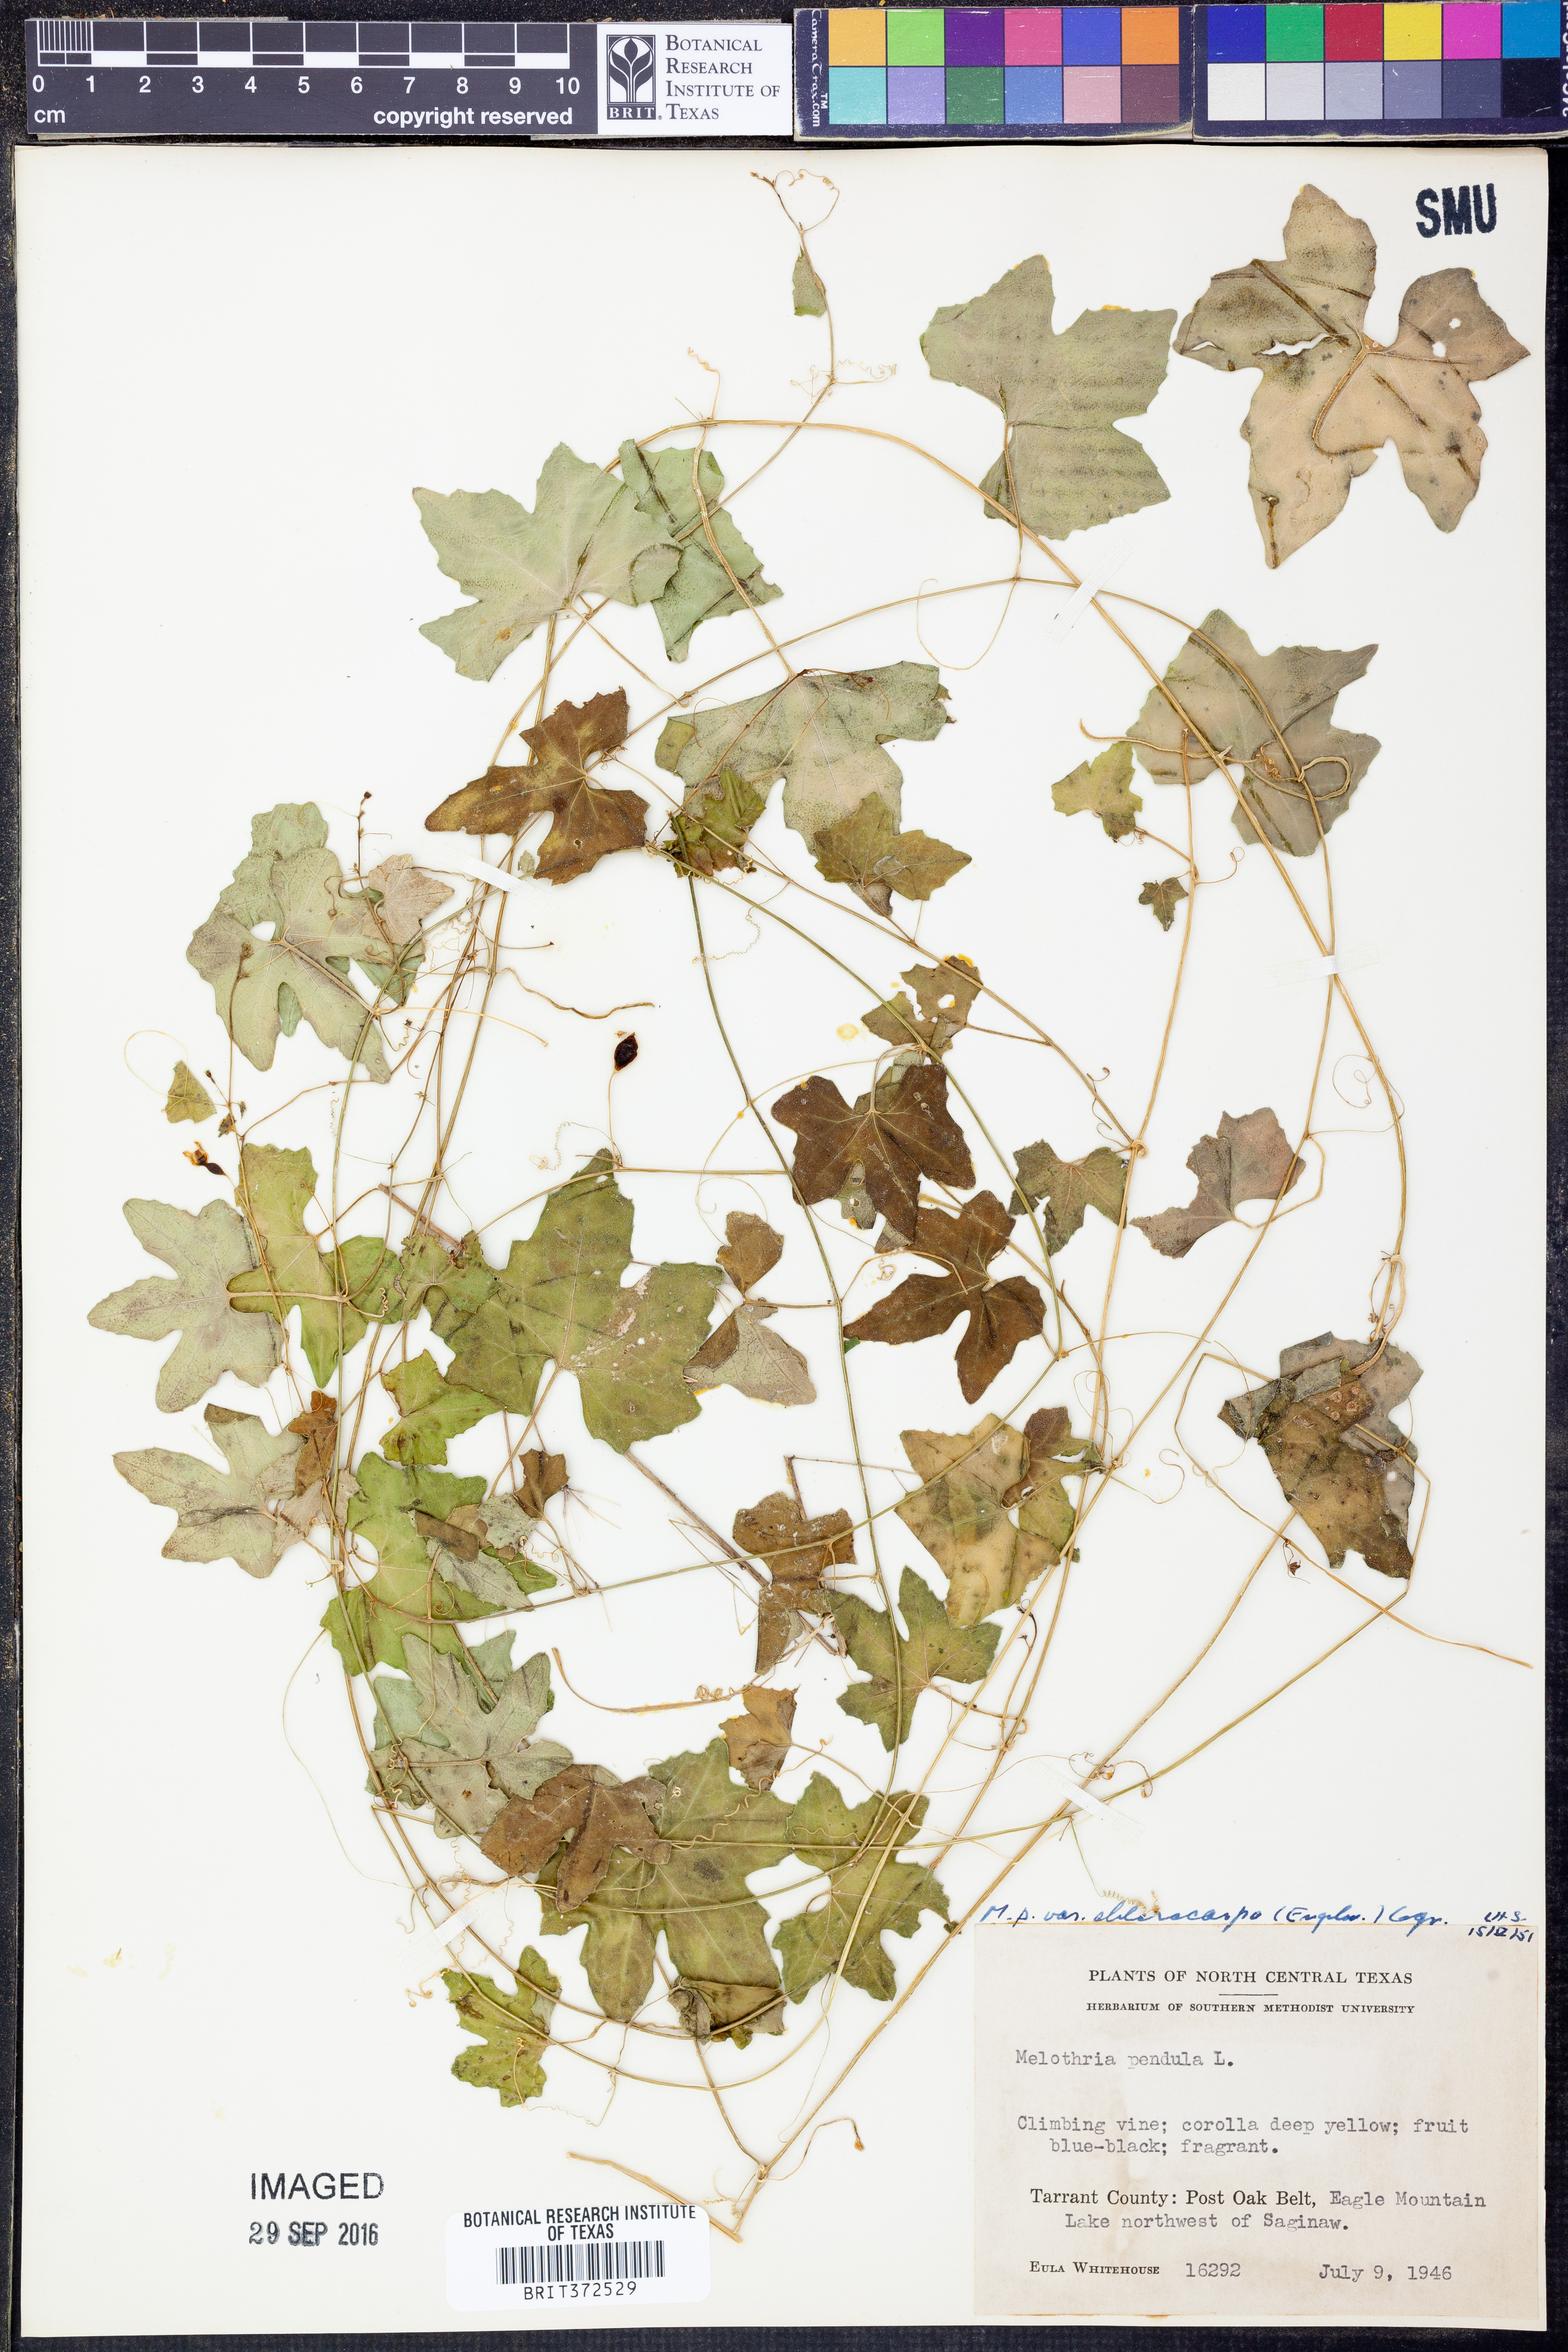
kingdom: Plantae
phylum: Tracheophyta
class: Magnoliopsida
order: Cucurbitales
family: Cucurbitaceae
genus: Melothria
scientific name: Melothria pendula
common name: Creeping-cucumber
